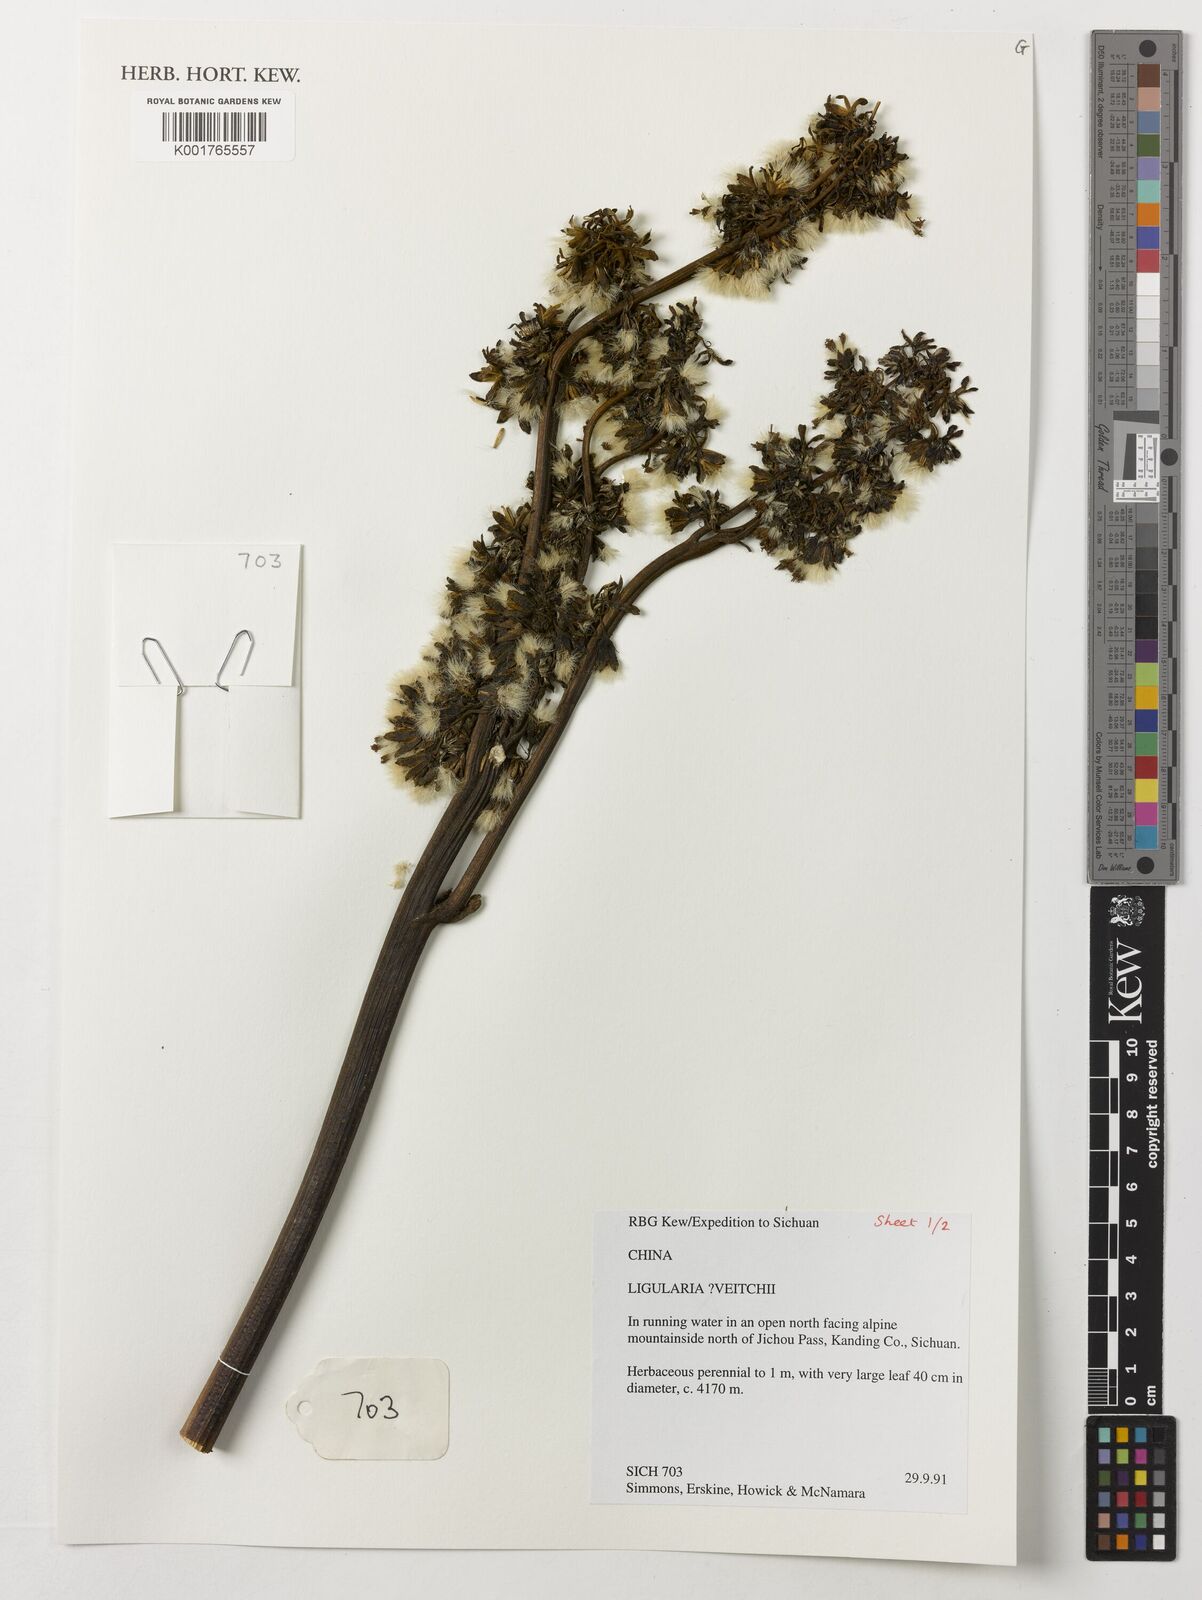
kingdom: Plantae
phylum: Tracheophyta
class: Magnoliopsida
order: Asterales
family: Asteraceae
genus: Ligularia
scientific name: Ligularia
